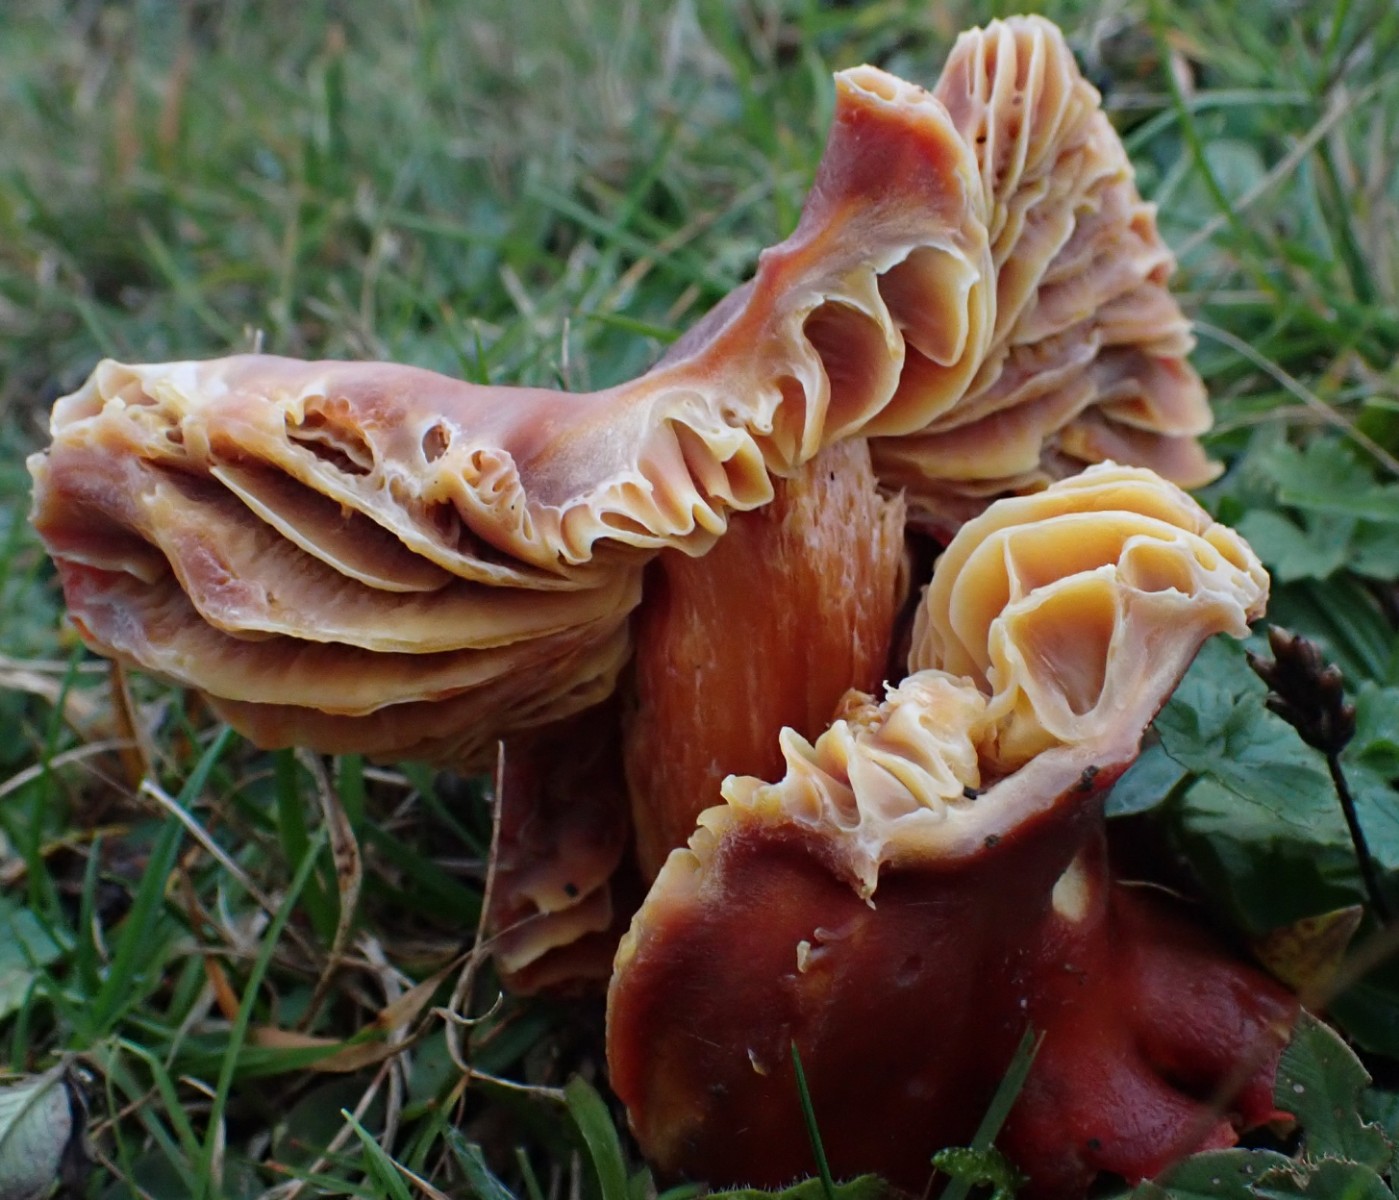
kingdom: Fungi
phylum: Basidiomycota
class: Agaricomycetes
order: Agaricales
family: Hygrophoraceae
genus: Hygrocybe
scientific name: Hygrocybe punicea
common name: skarlagen-vokshat
